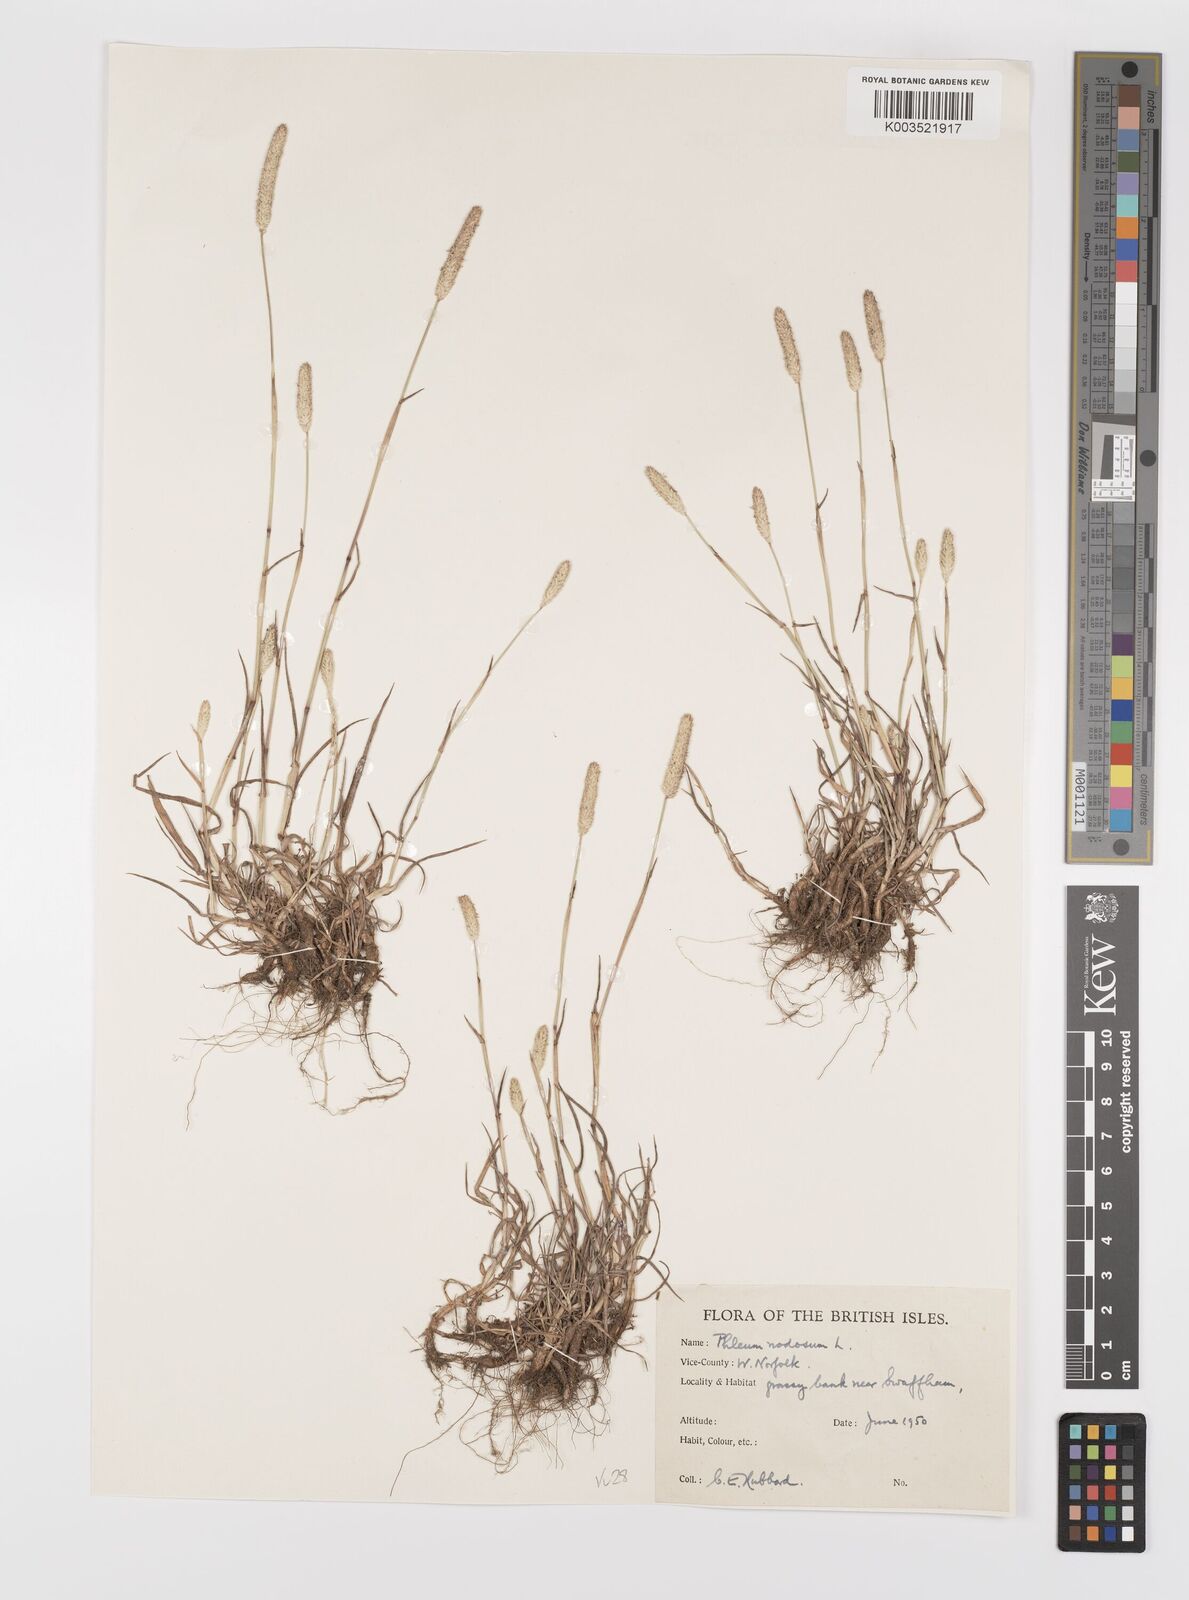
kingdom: Plantae
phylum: Tracheophyta
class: Liliopsida
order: Poales
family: Poaceae
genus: Phleum
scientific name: Phleum bertolonii
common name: Smaller cat's-tail
